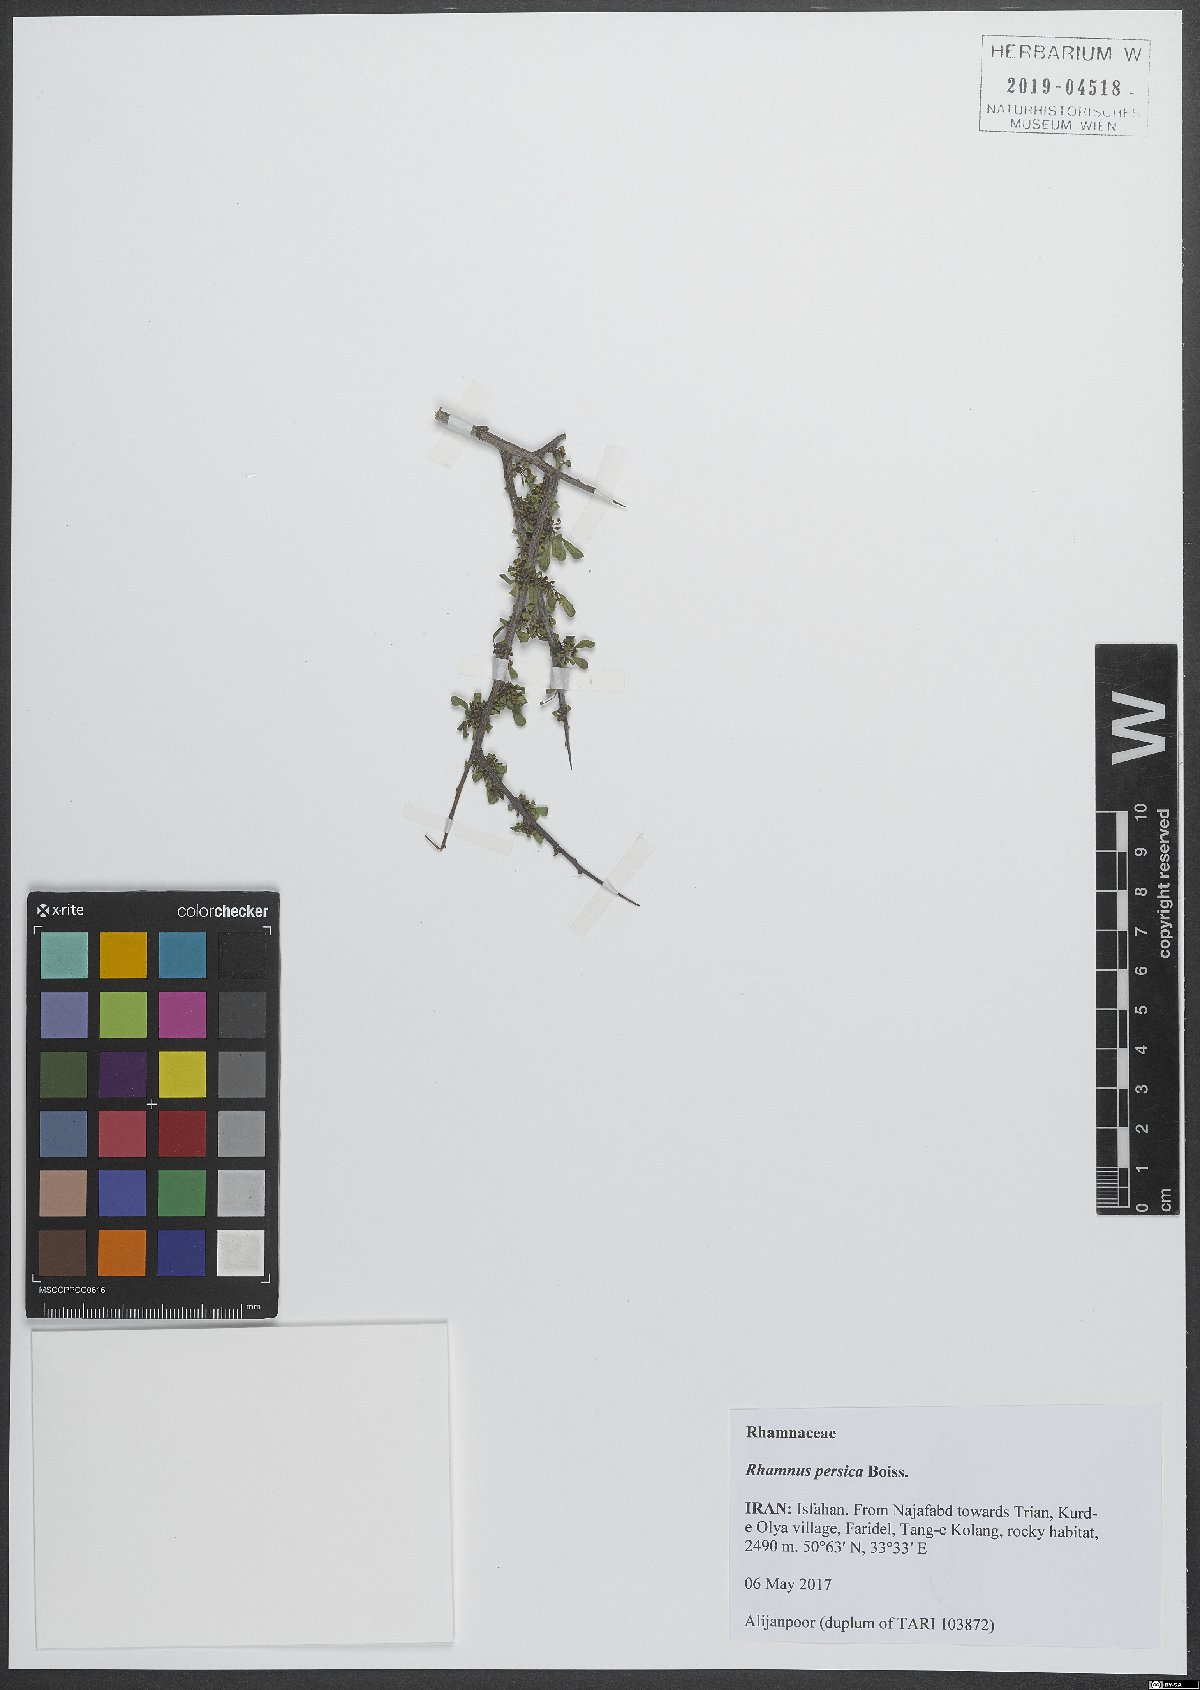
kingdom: Plantae
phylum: Tracheophyta
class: Magnoliopsida
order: Rosales
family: Rhamnaceae
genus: Rhamnus
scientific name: Rhamnus persica
